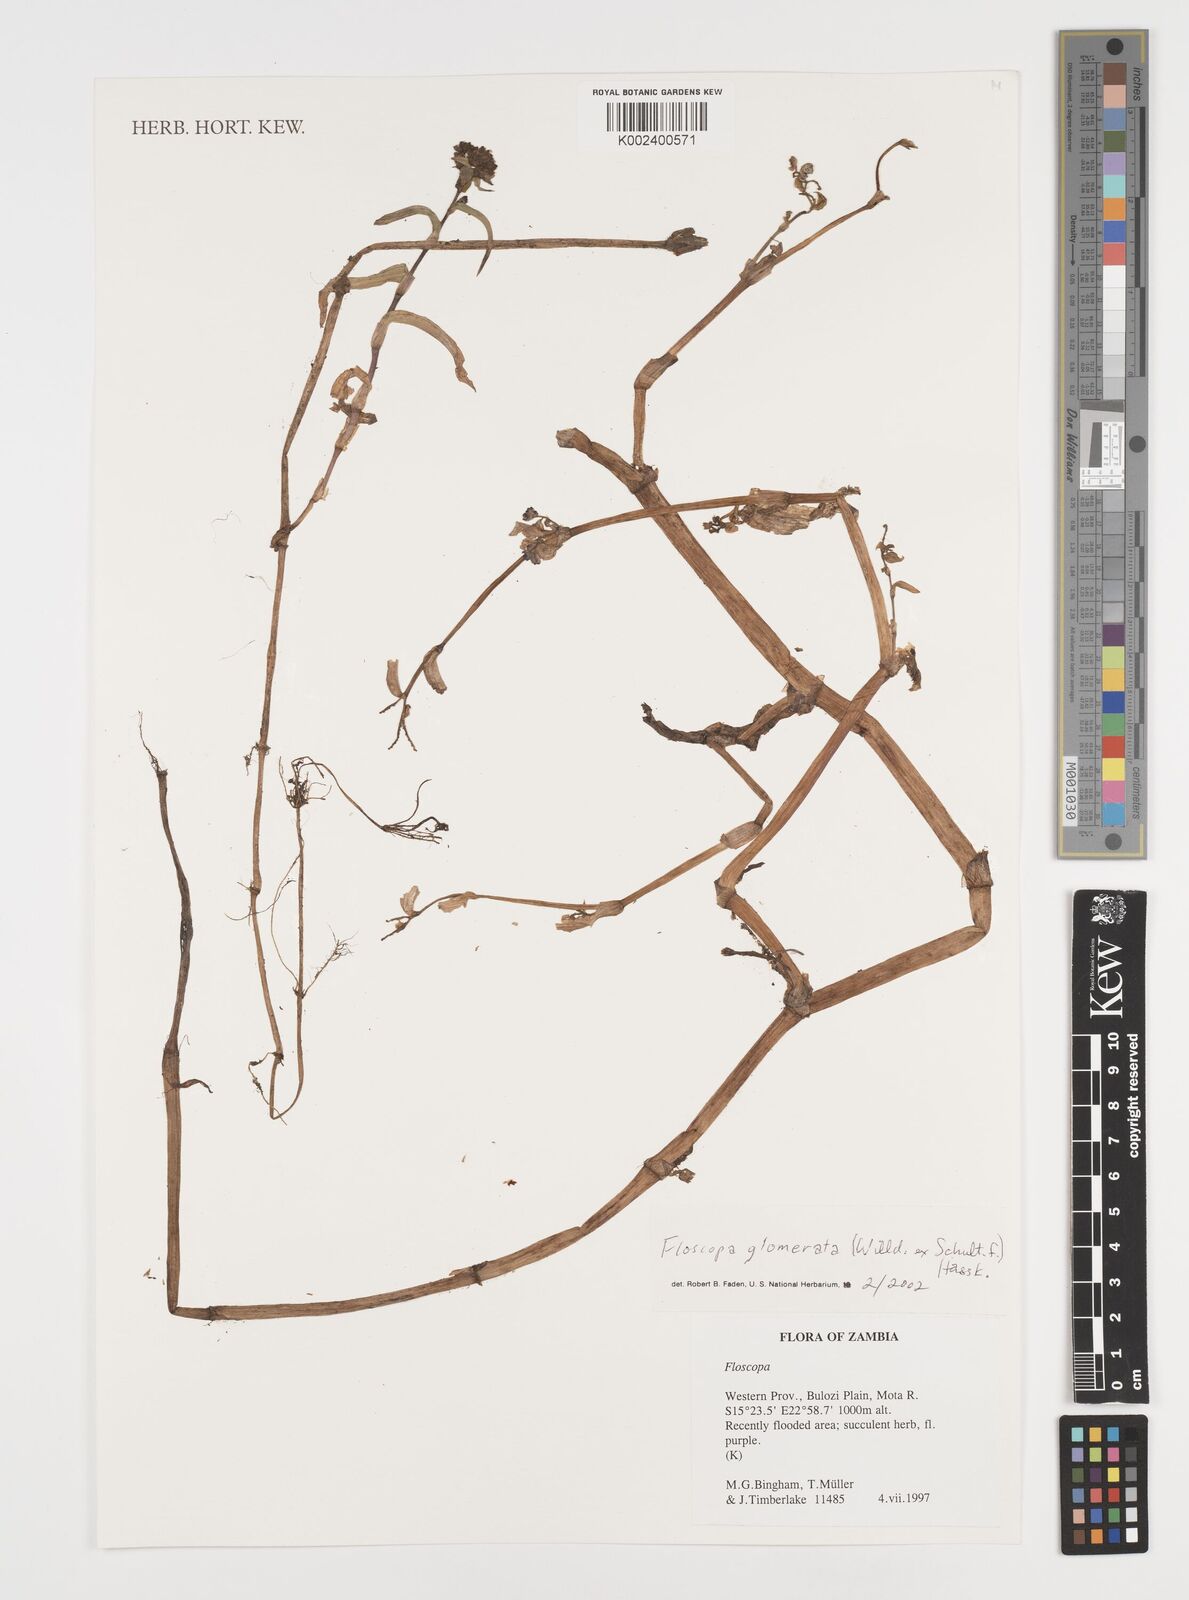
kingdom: Plantae
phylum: Tracheophyta
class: Liliopsida
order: Commelinales
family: Commelinaceae
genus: Floscopa
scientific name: Floscopa glomerata
